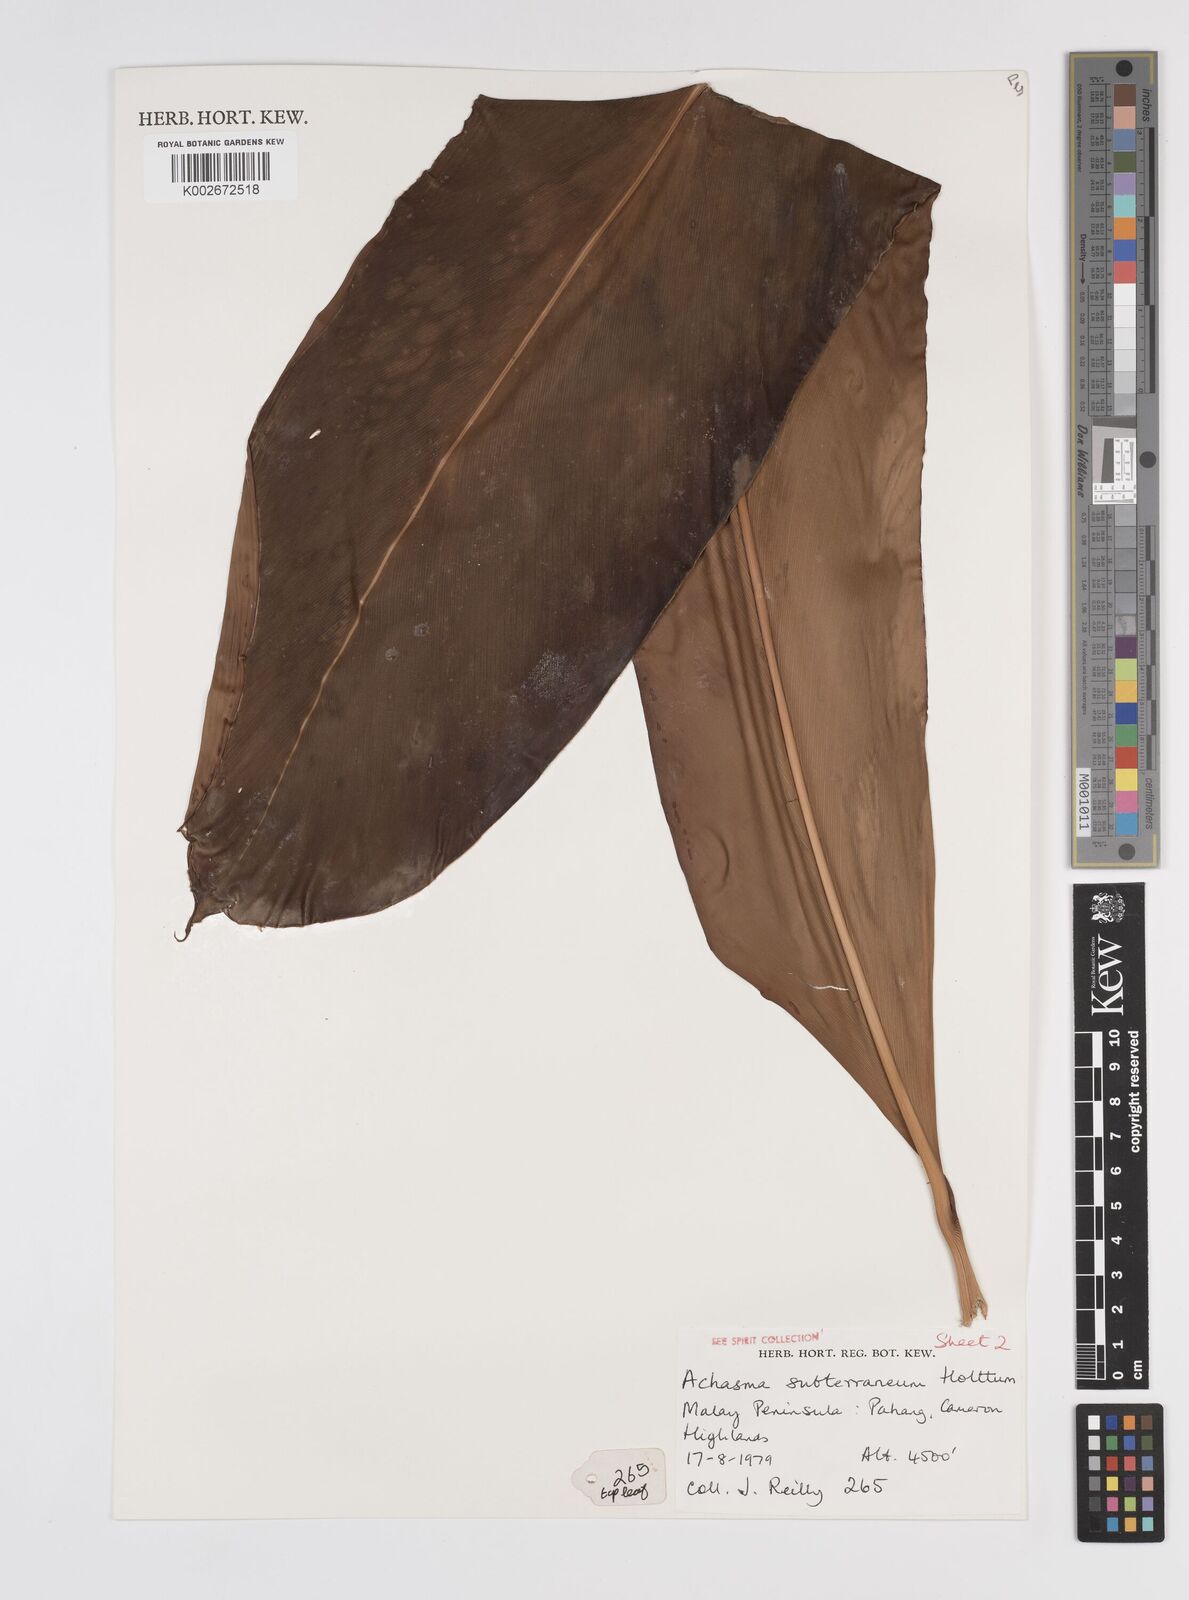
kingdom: Plantae
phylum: Tracheophyta
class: Liliopsida
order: Zingiberales
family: Zingiberaceae
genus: Etlingera
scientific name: Etlingera subterranea
